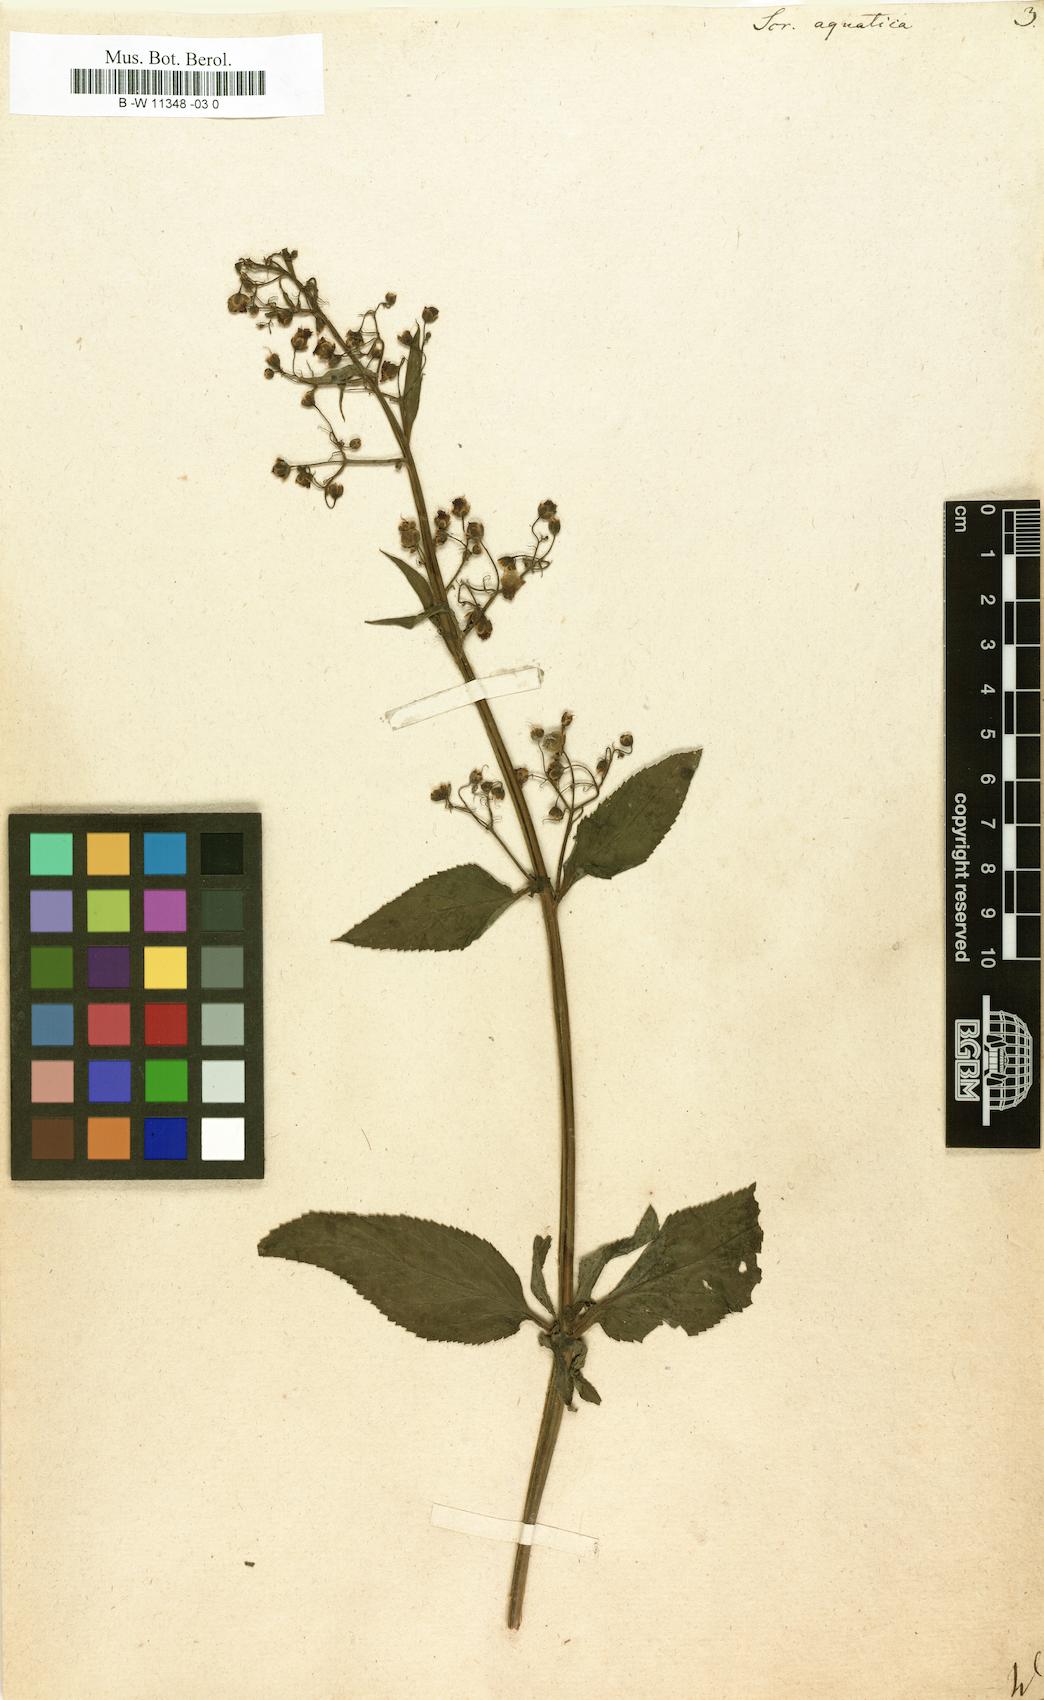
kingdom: Plantae
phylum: Tracheophyta
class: Magnoliopsida
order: Lamiales
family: Scrophulariaceae
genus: Scrophularia
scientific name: Scrophularia
